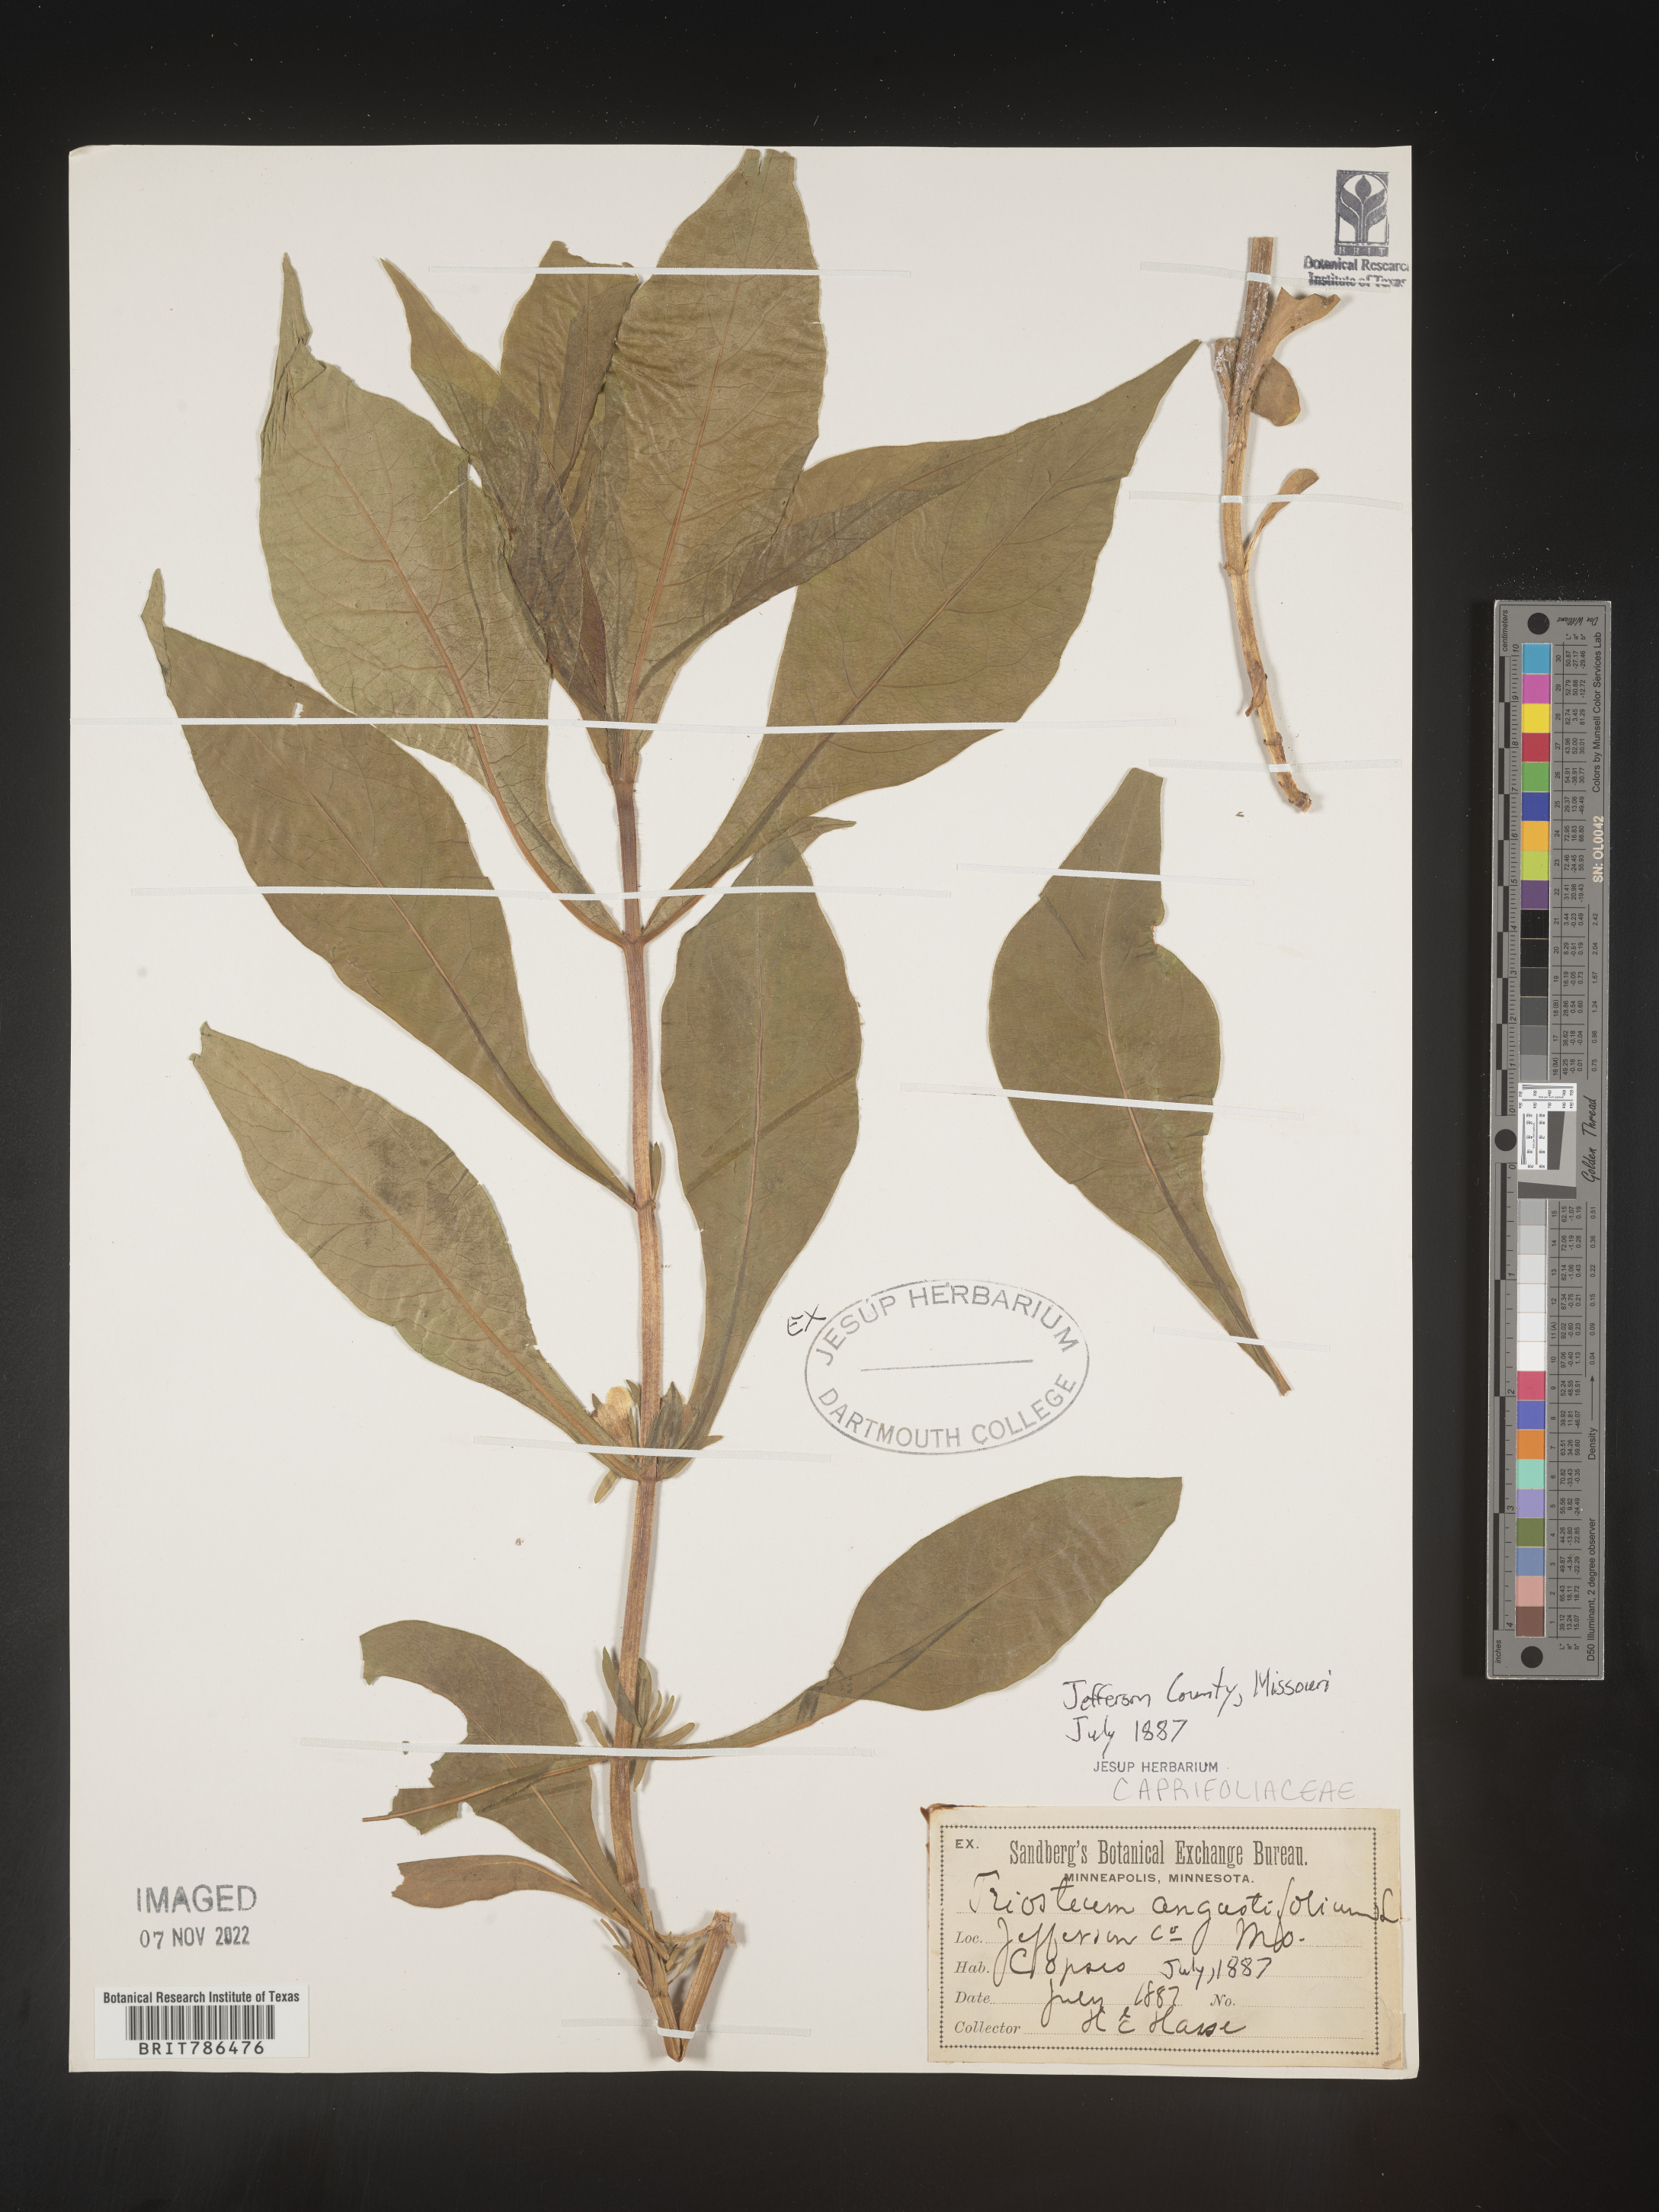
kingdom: Plantae
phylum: Tracheophyta
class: Magnoliopsida
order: Dipsacales
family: Caprifoliaceae
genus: Triosteum
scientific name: Triosteum angustifolium
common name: Narrow-leaved horse-gentian
